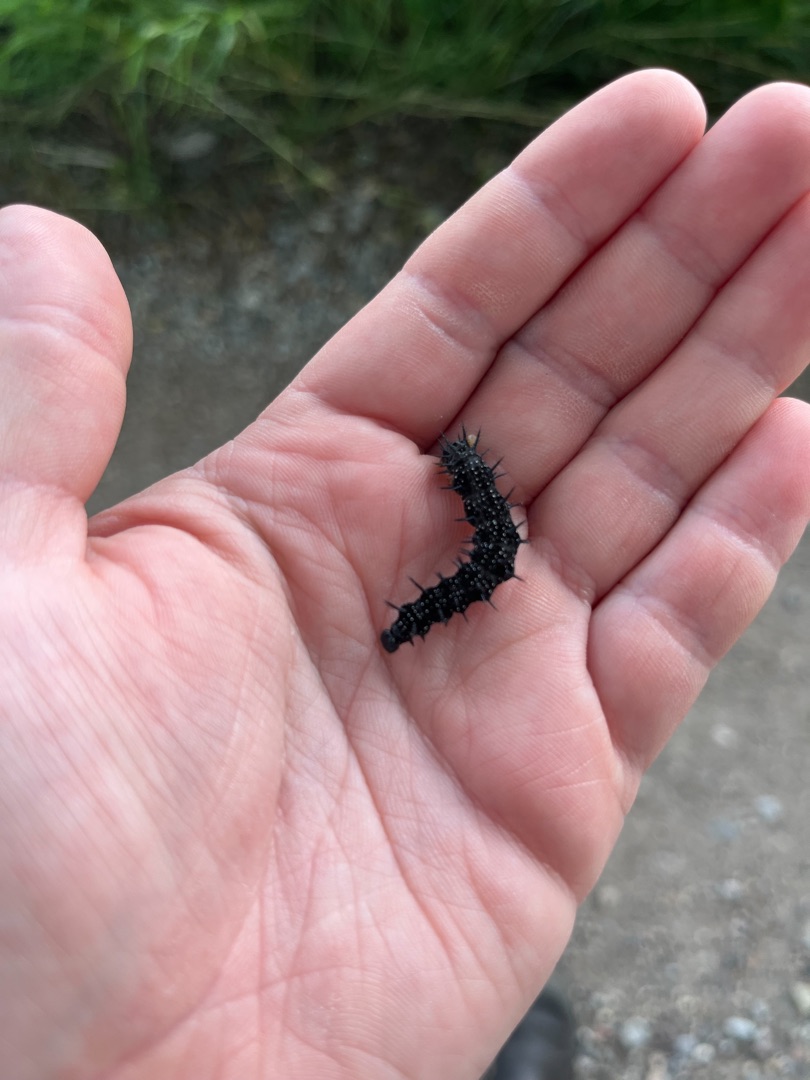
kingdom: Animalia
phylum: Arthropoda
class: Insecta
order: Lepidoptera
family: Nymphalidae
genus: Aglais
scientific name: Aglais io
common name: Dagpåfugleøje
